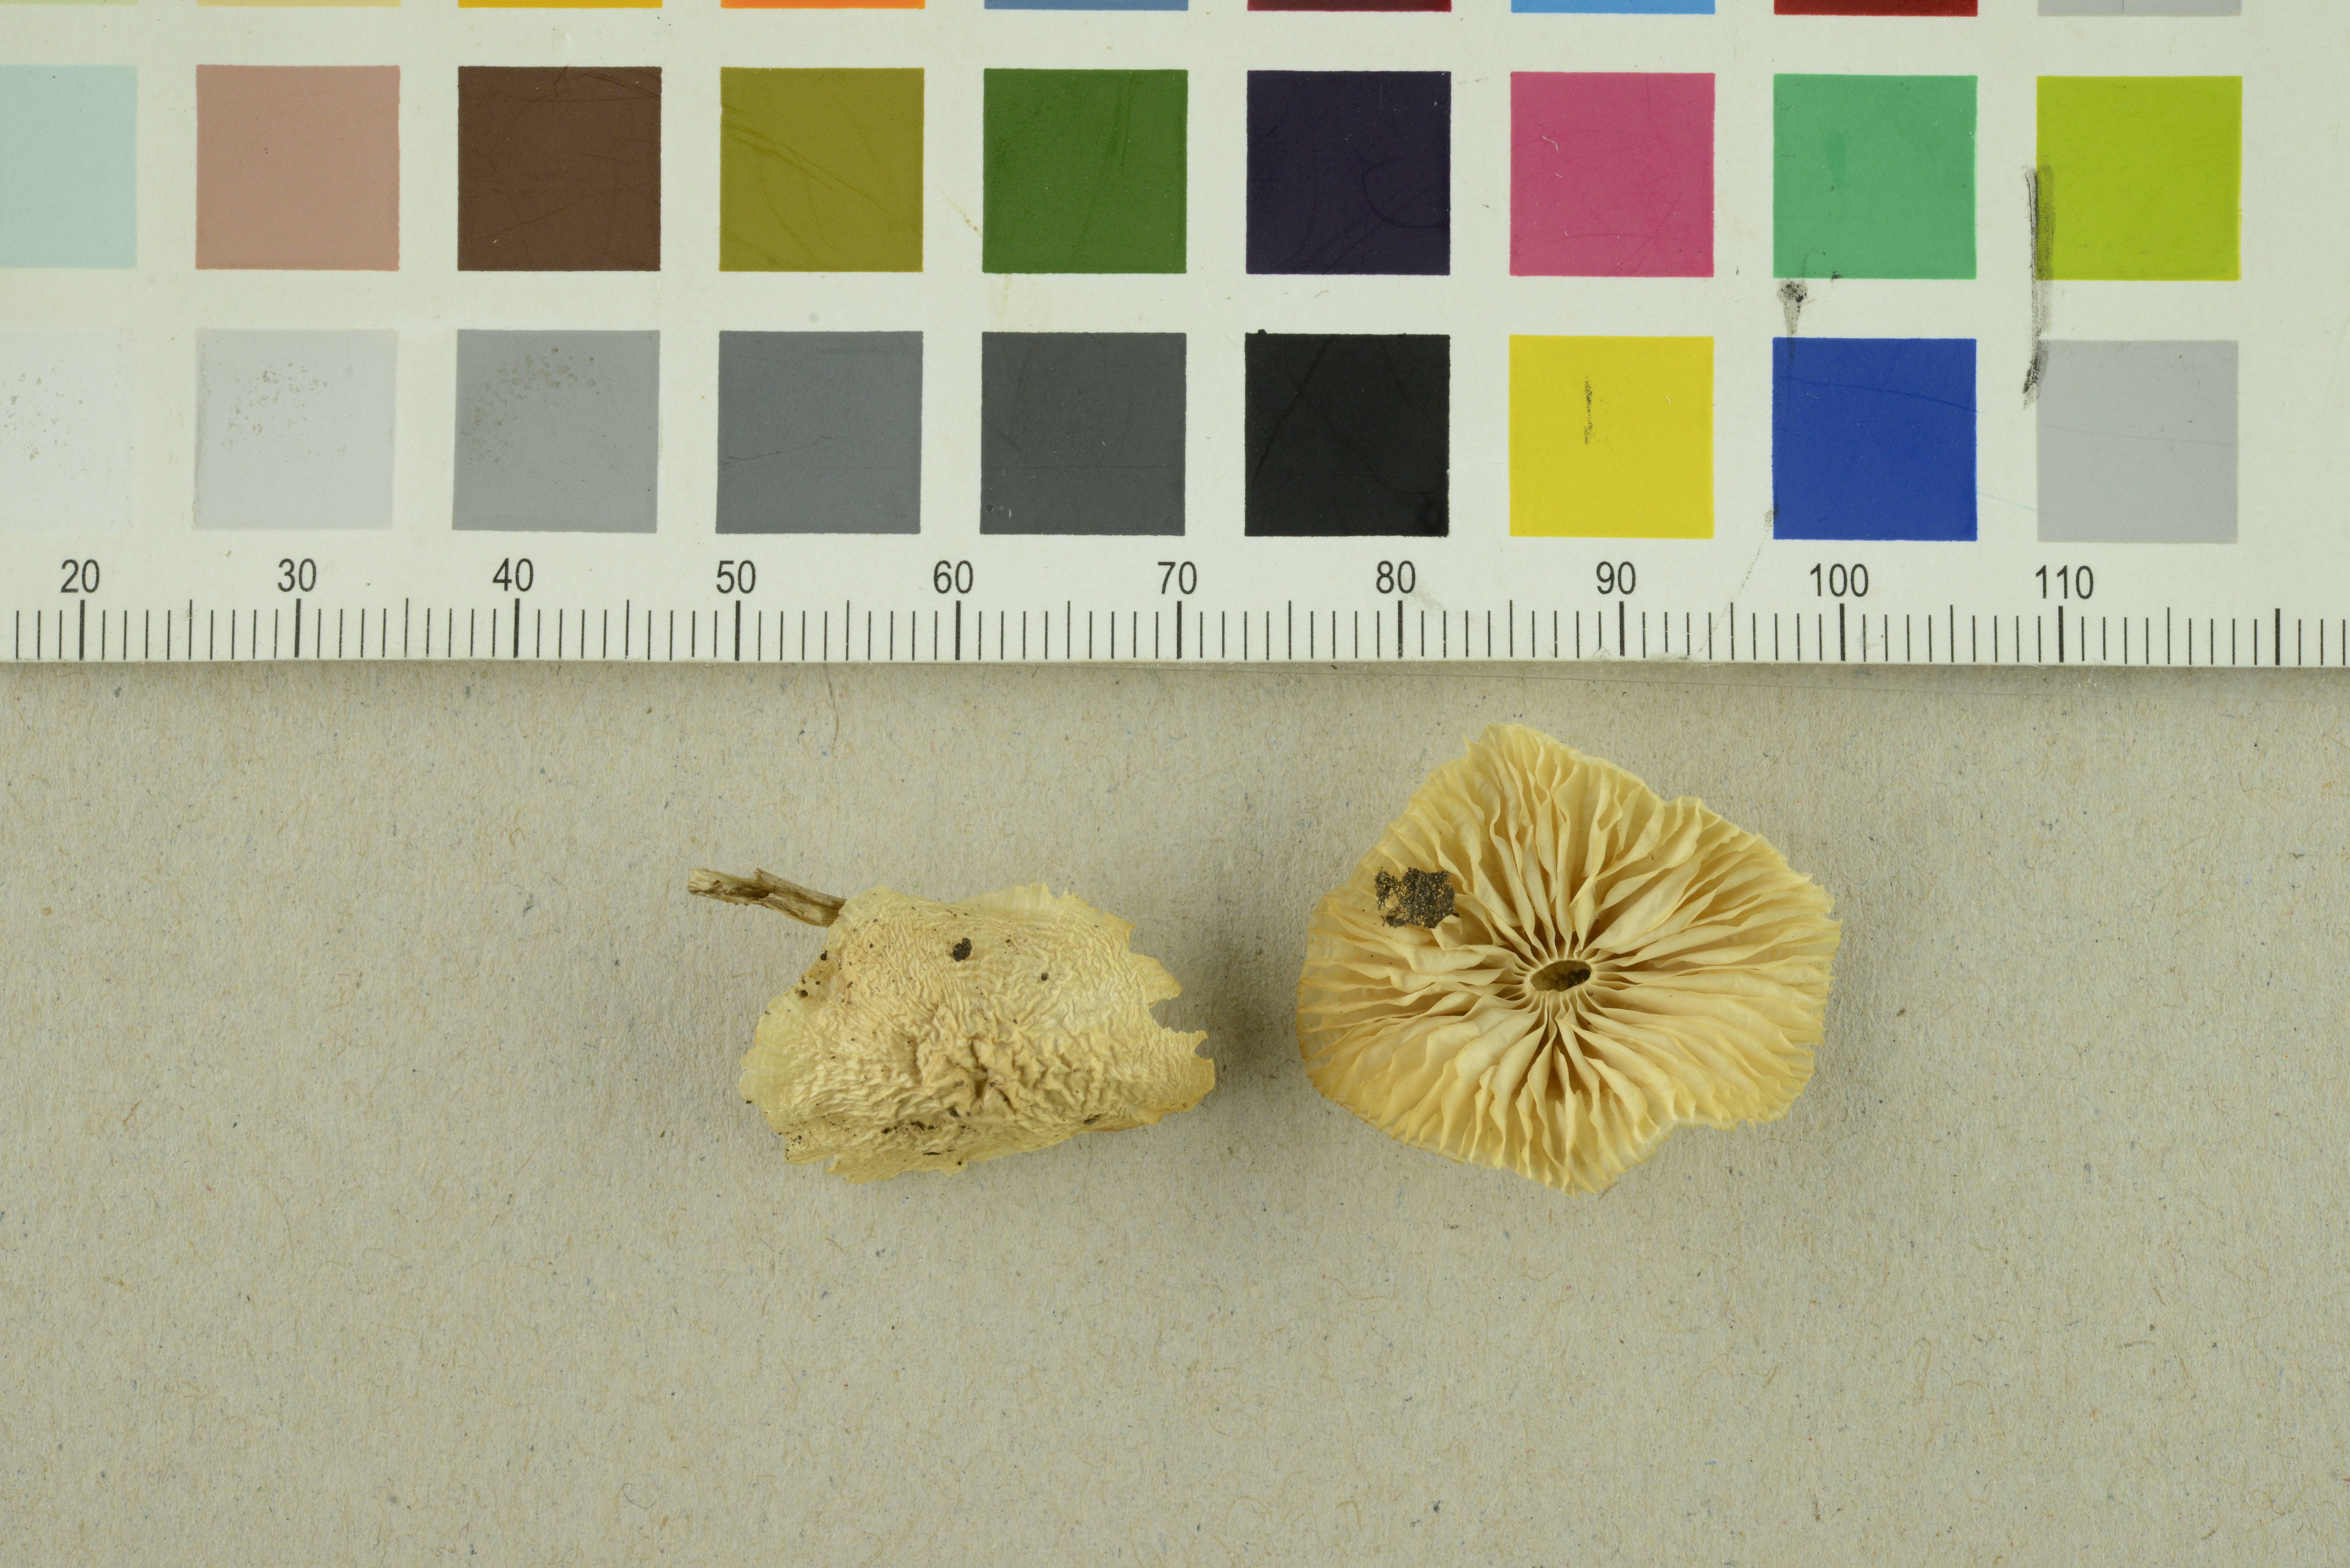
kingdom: Fungi
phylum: Basidiomycota
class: Agaricomycetes
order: Agaricales
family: Mycenaceae
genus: Mycena
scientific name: Mycena laevigata
